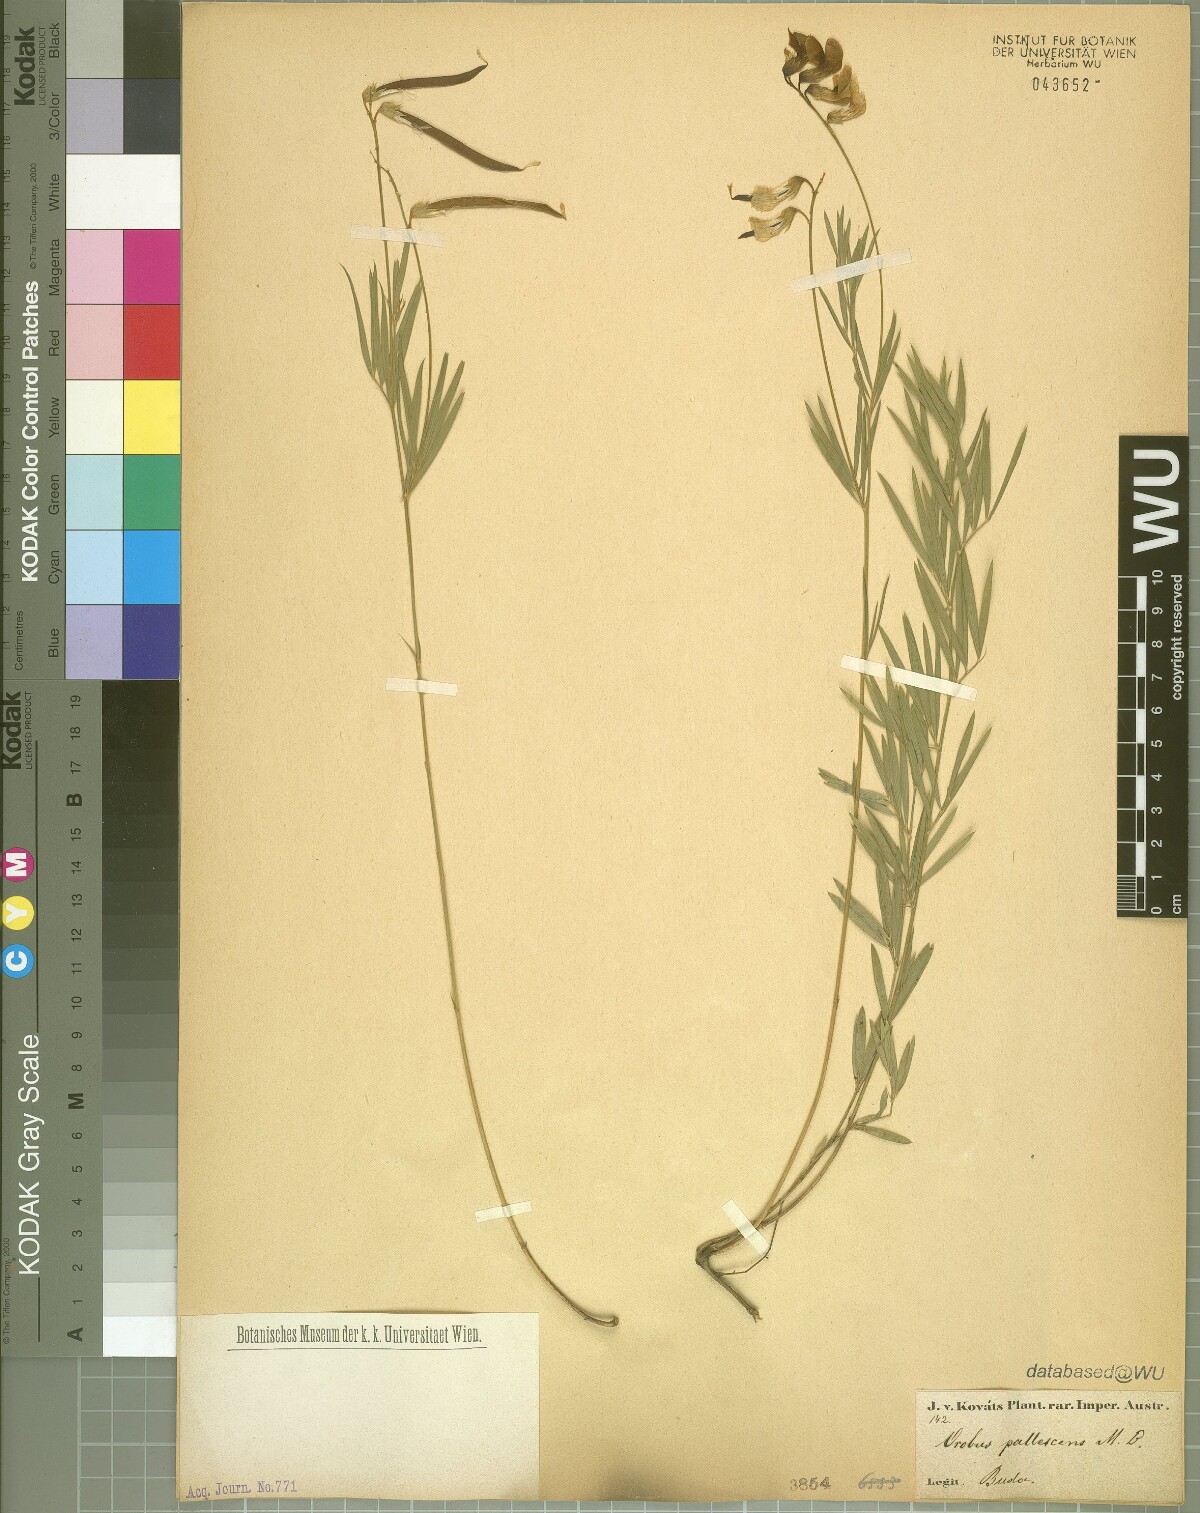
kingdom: Plantae
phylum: Tracheophyta
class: Magnoliopsida
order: Fabales
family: Fabaceae
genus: Lathyrus
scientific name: Lathyrus pallescens
